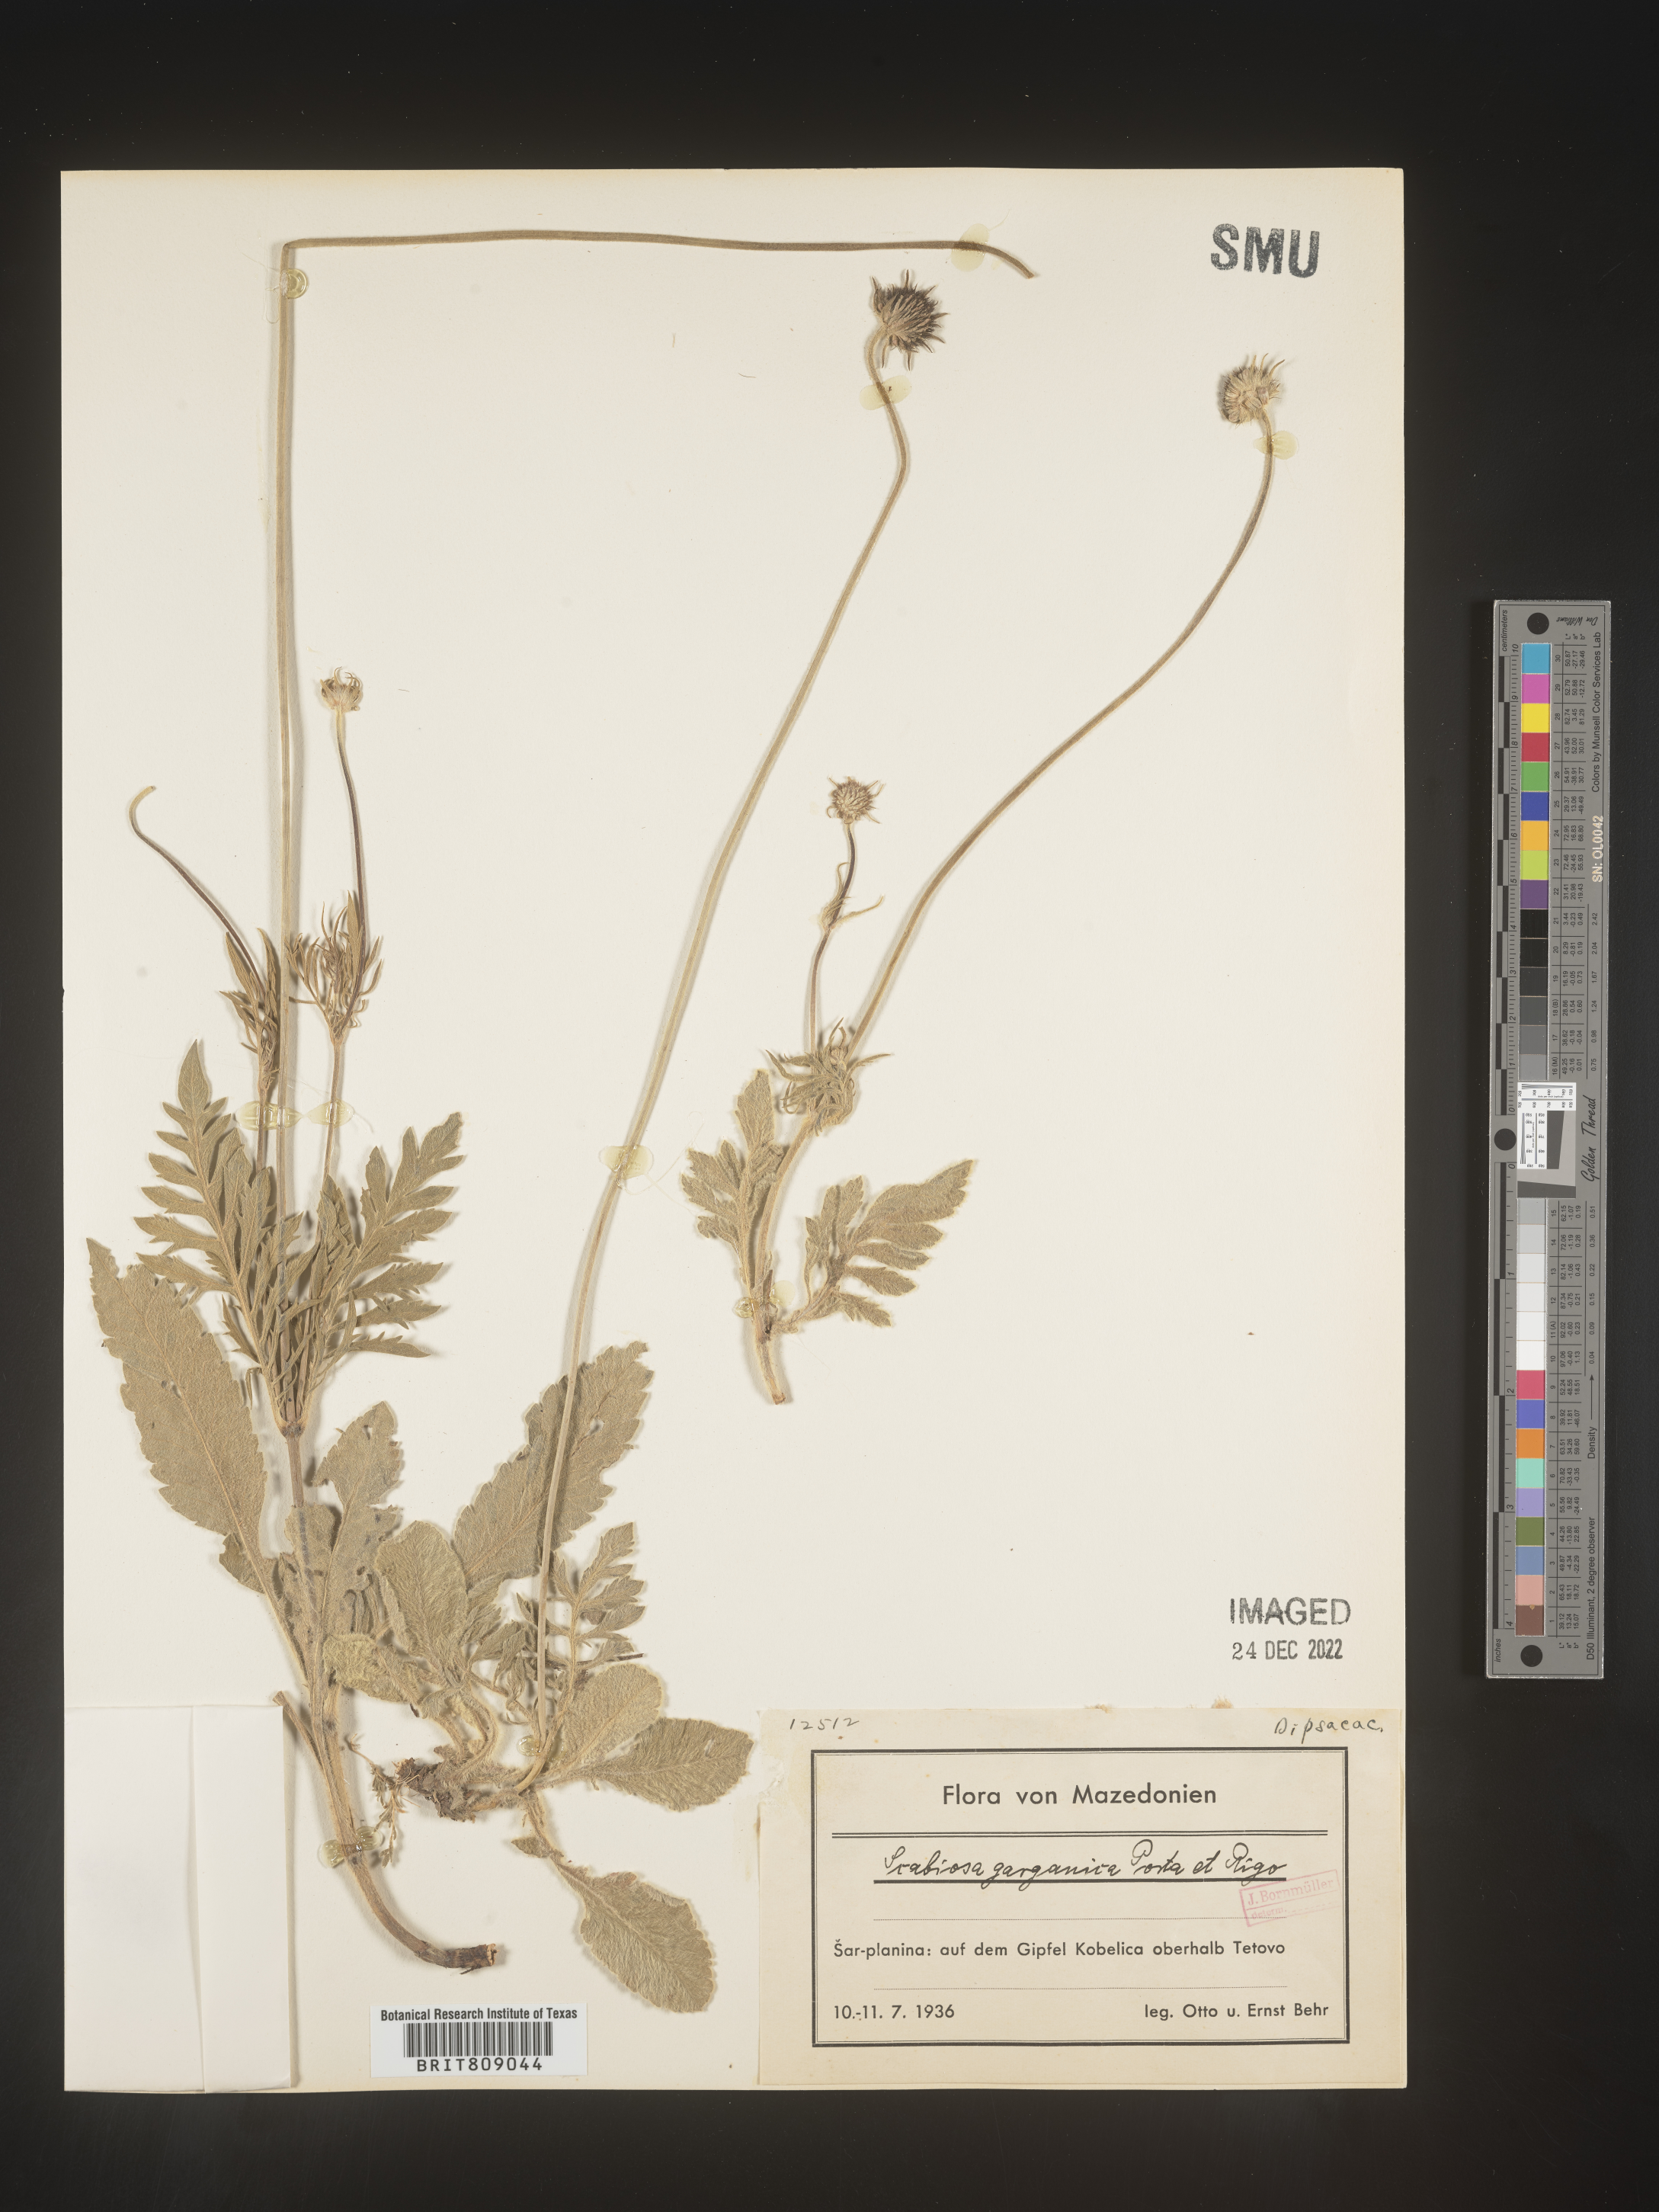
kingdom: Plantae
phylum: Tracheophyta
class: Magnoliopsida
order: Dipsacales
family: Caprifoliaceae
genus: Scabiosa
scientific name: Scabiosa
